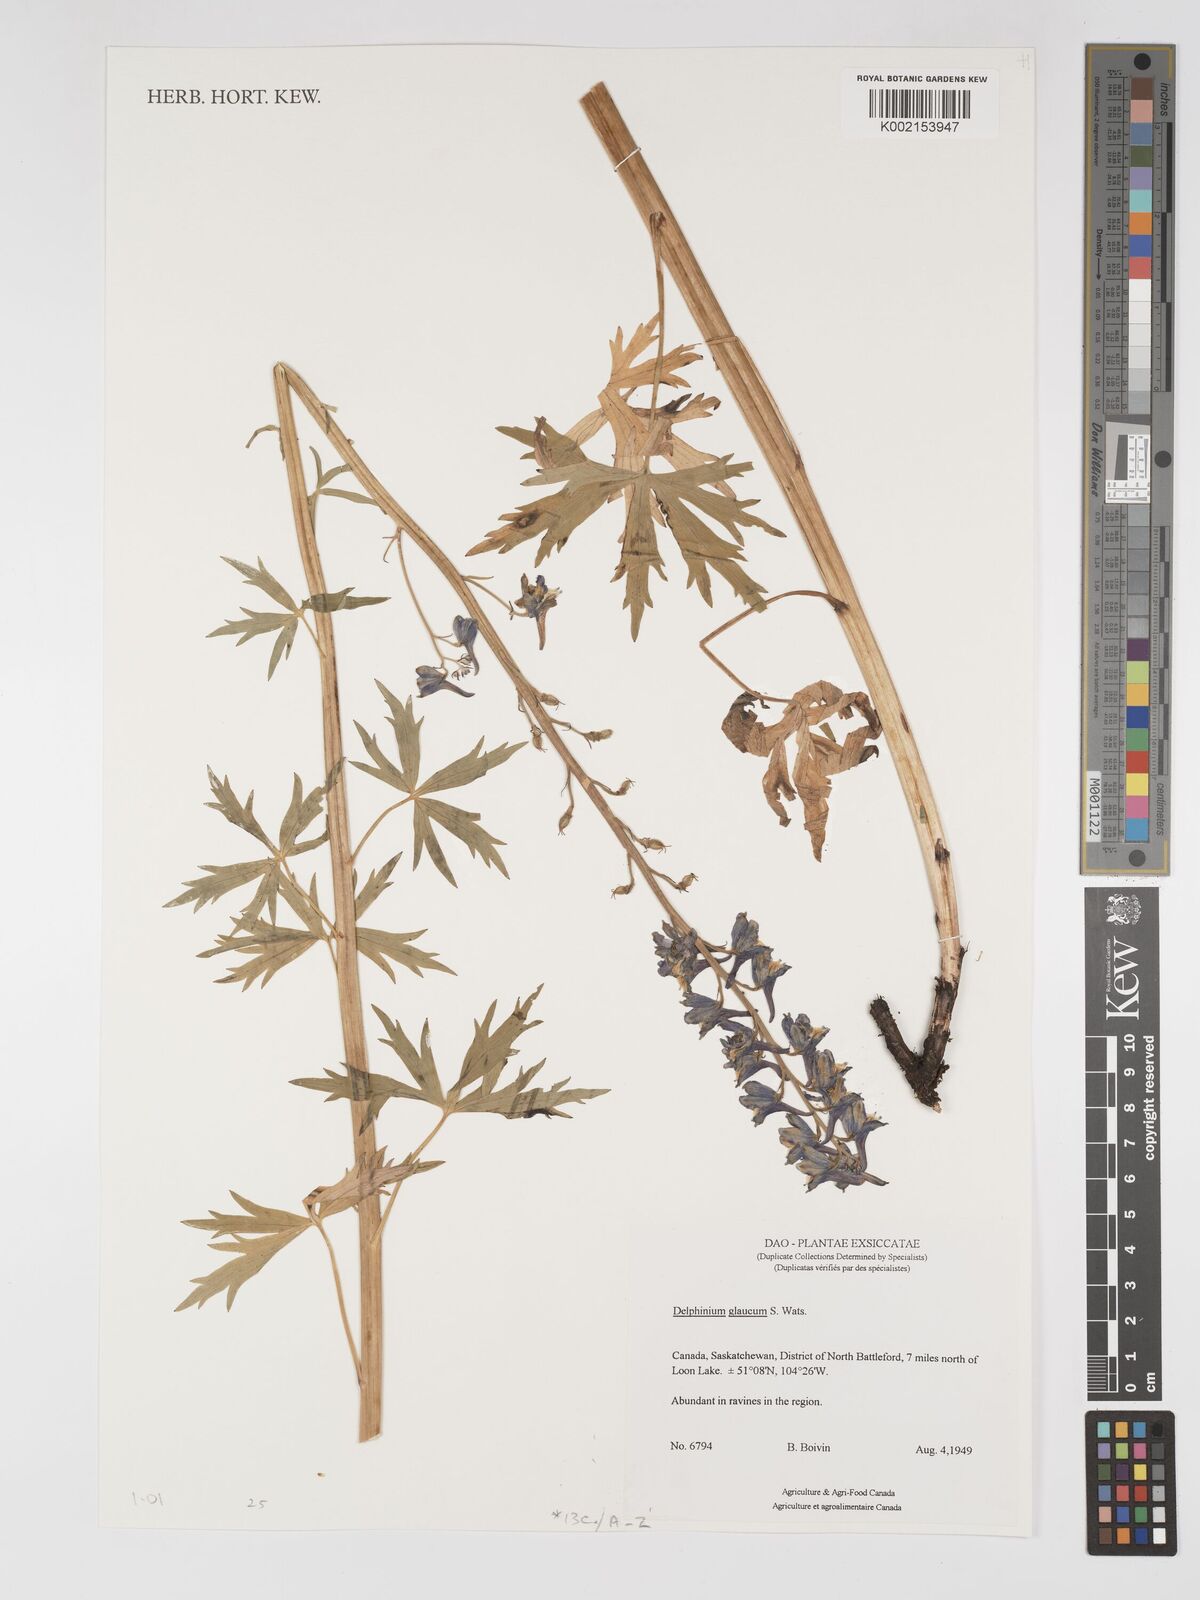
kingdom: Plantae
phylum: Tracheophyta
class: Magnoliopsida
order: Ranunculales
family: Ranunculaceae
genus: Delphinium
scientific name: Delphinium glaucum
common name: Brown's larkspur
